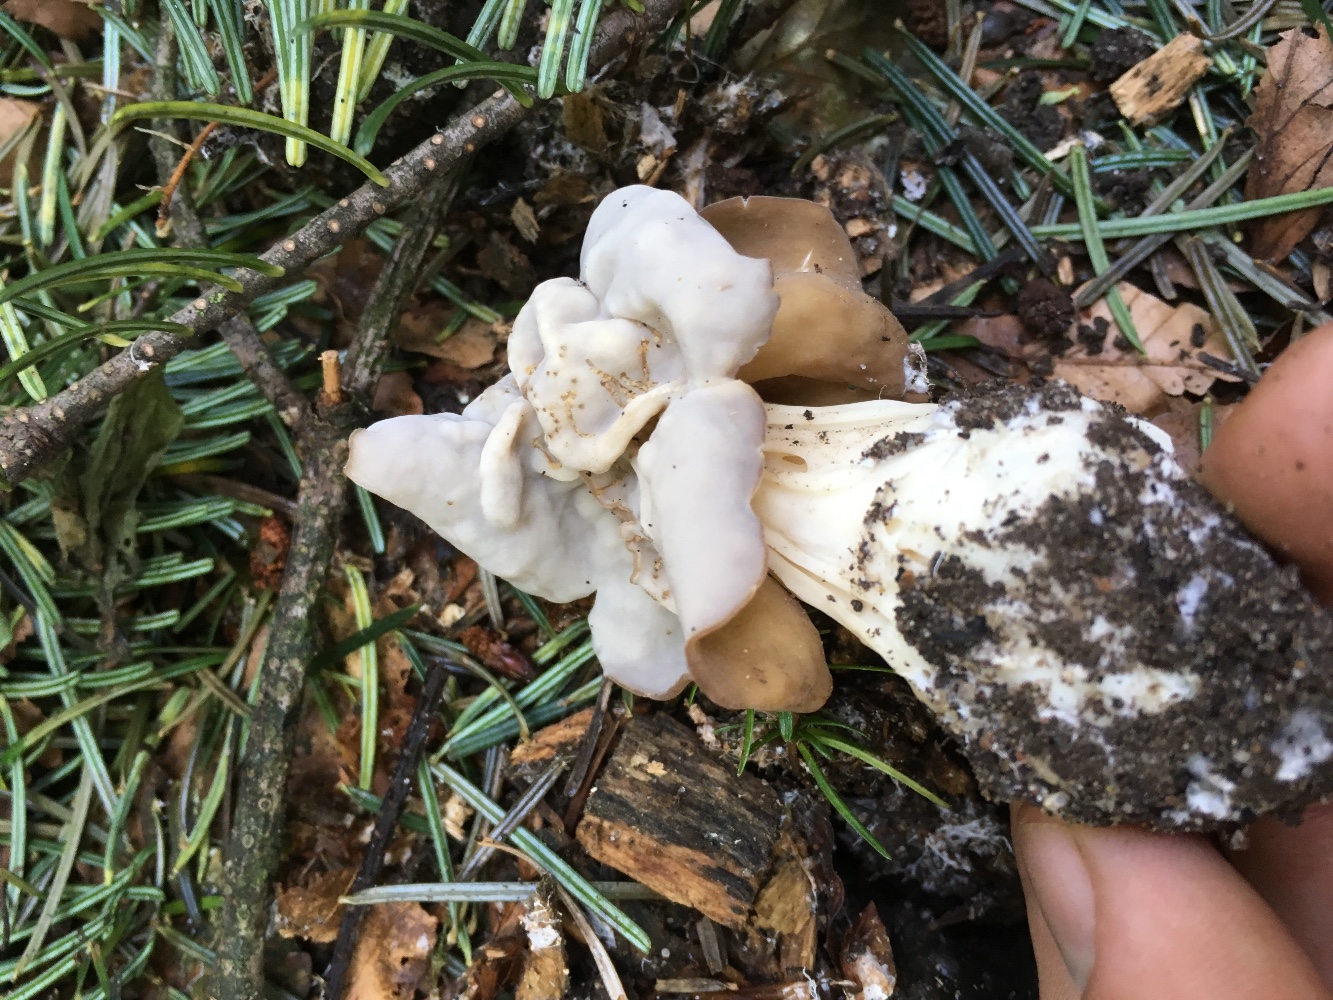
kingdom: Fungi
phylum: Ascomycota
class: Pezizomycetes
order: Pezizales
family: Helvellaceae
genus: Helvella
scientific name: Helvella crispa
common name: kruset foldhat
